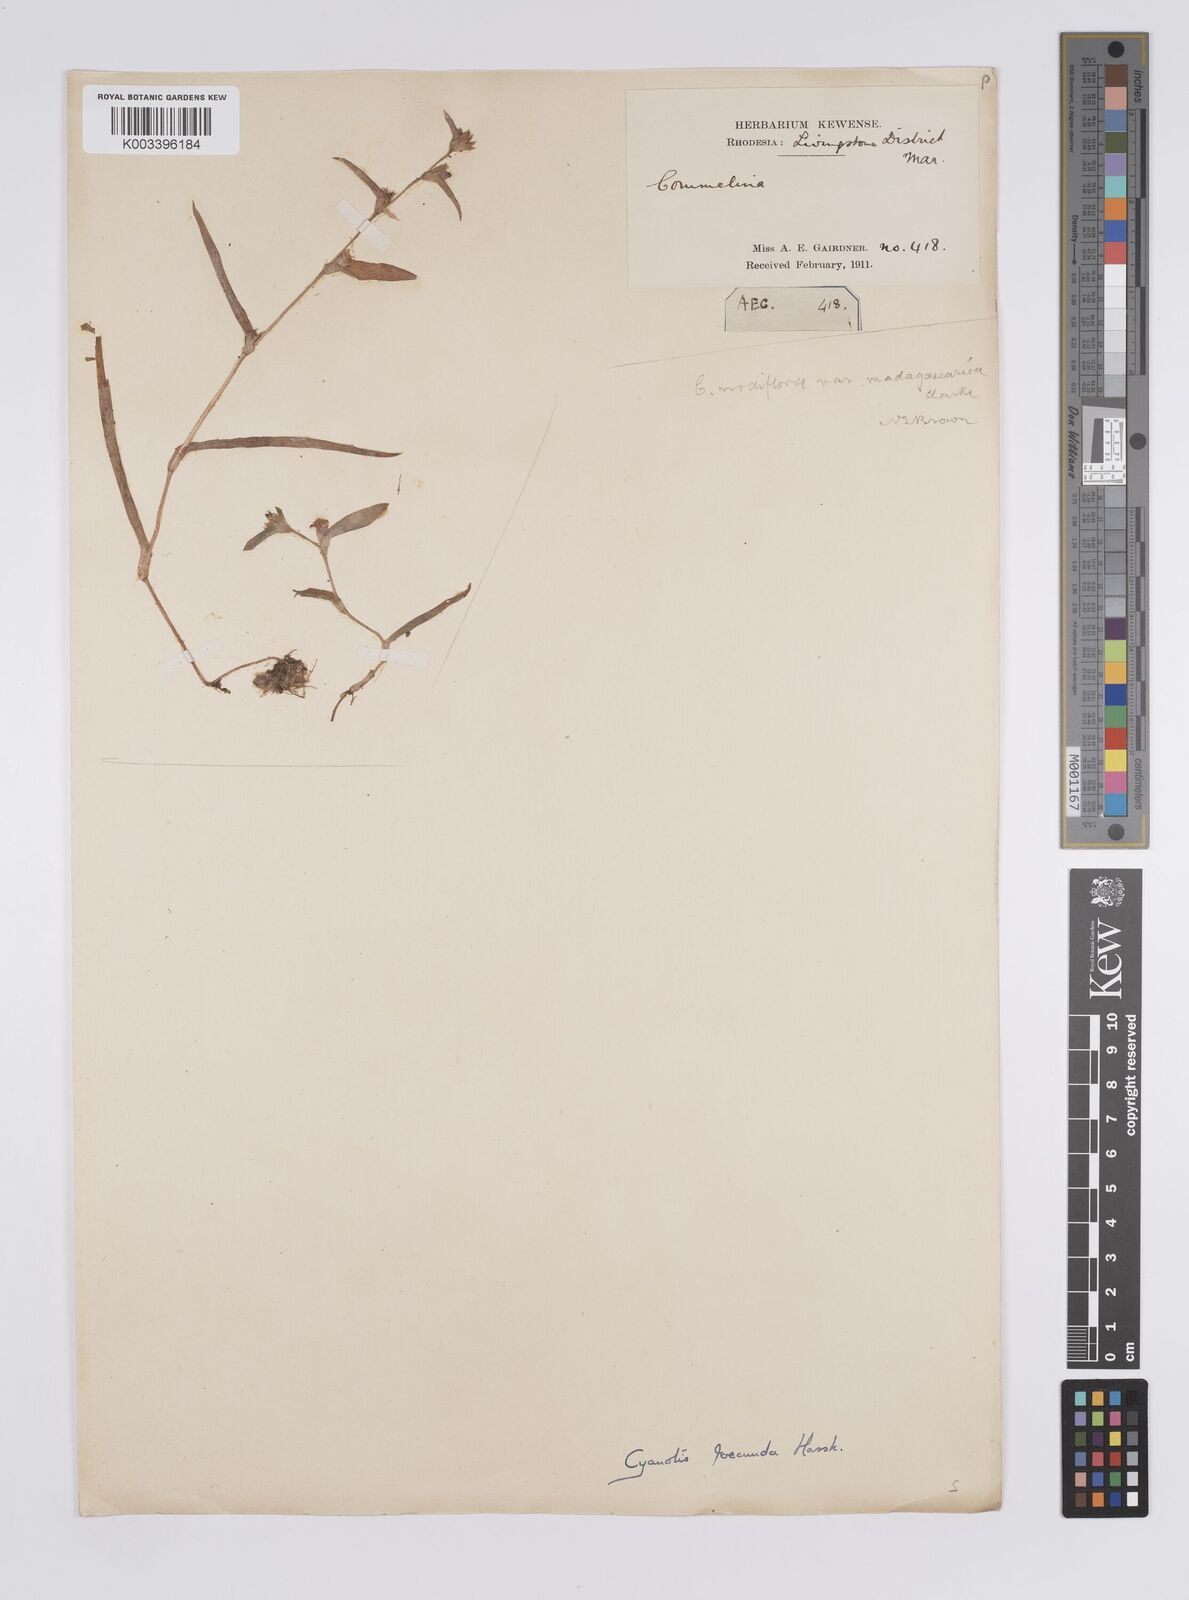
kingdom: Plantae
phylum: Tracheophyta
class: Liliopsida
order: Commelinales
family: Commelinaceae
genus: Cyanotis
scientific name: Cyanotis foecunda
